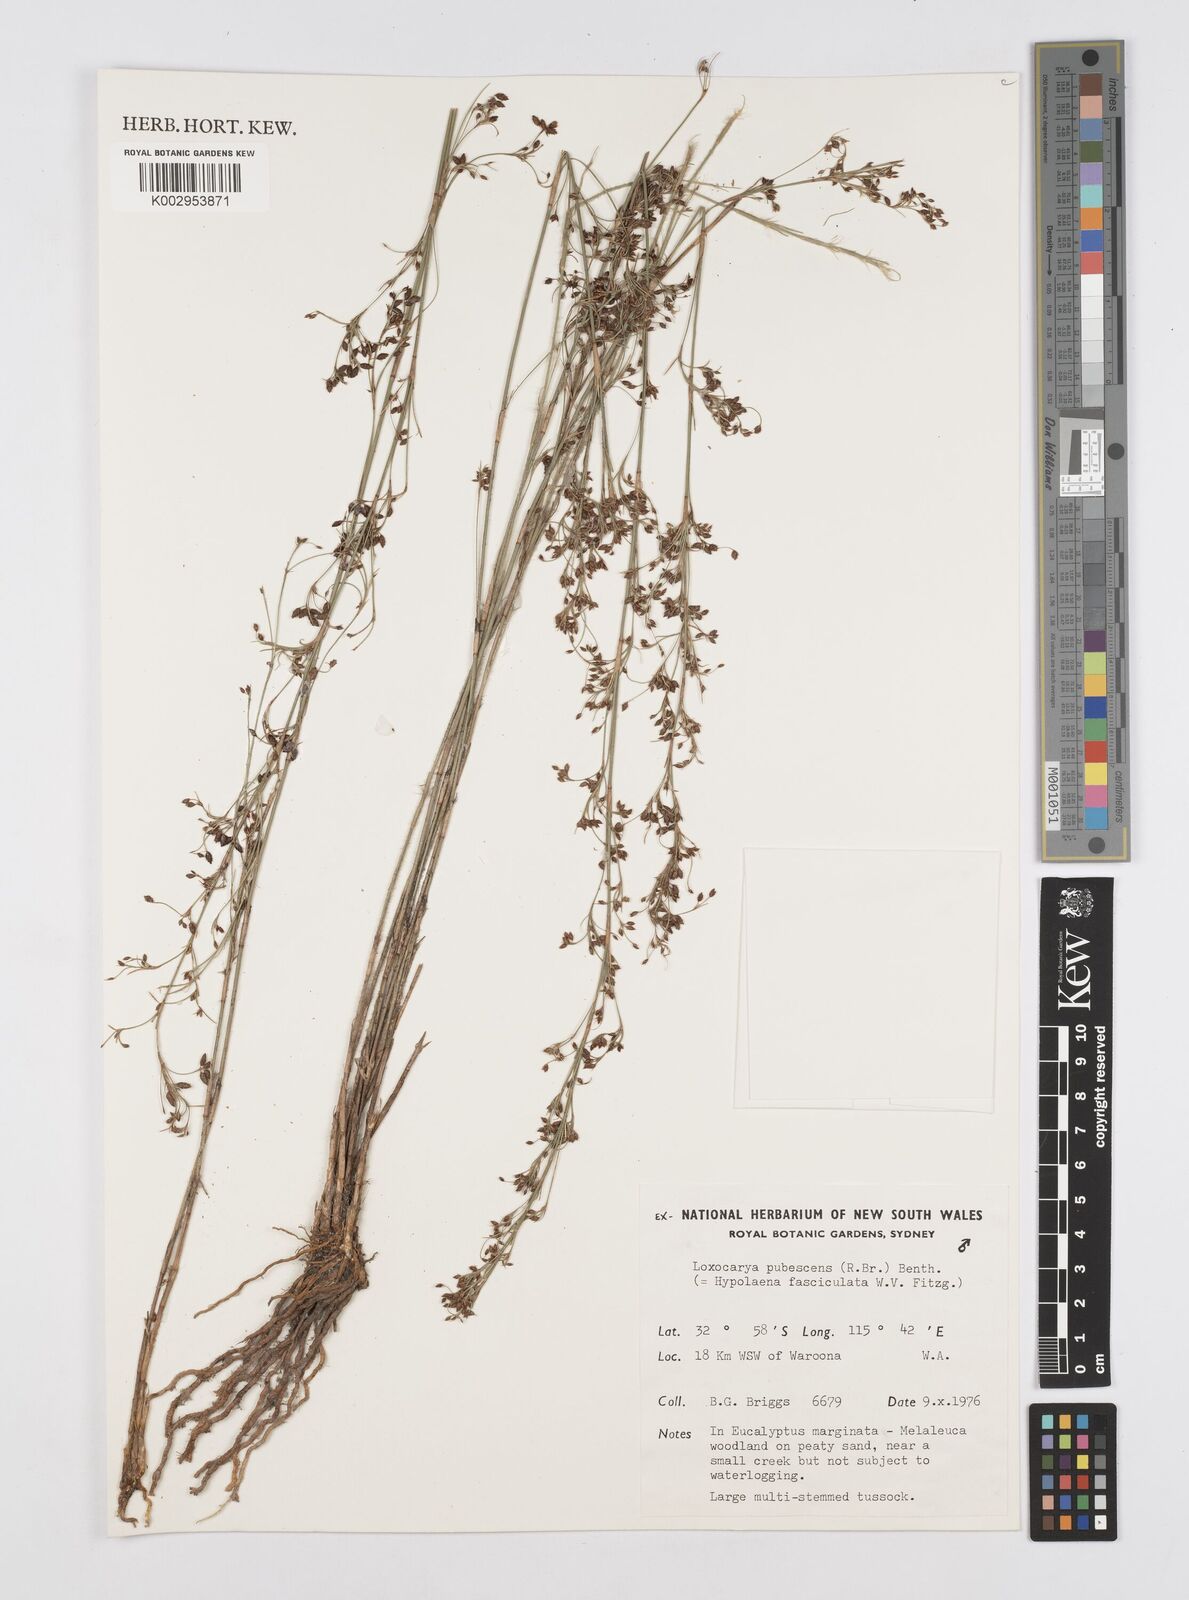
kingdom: Plantae
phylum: Tracheophyta
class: Liliopsida
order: Poales
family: Restionaceae
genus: Hypolaena
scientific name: Hypolaena pubescens
